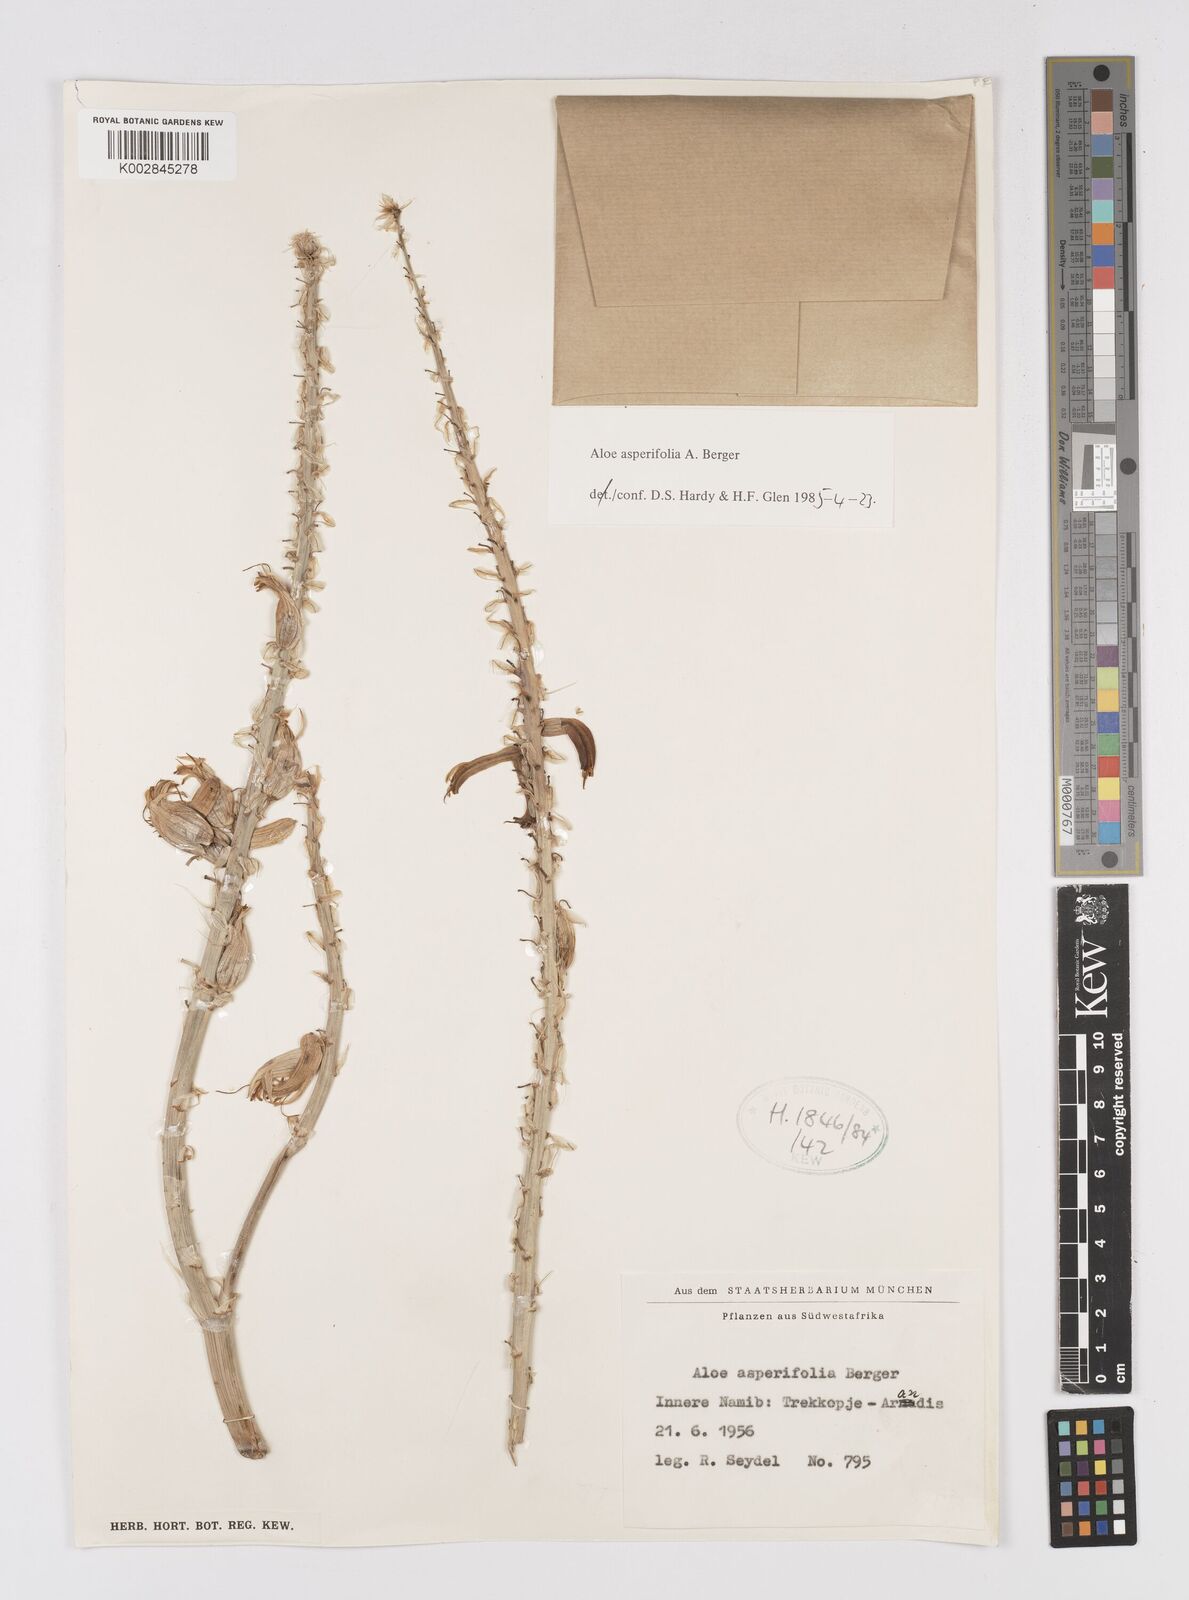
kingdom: Plantae
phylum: Tracheophyta
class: Liliopsida
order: Asparagales
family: Asphodelaceae
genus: Aloe
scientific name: Aloe asperifolia
